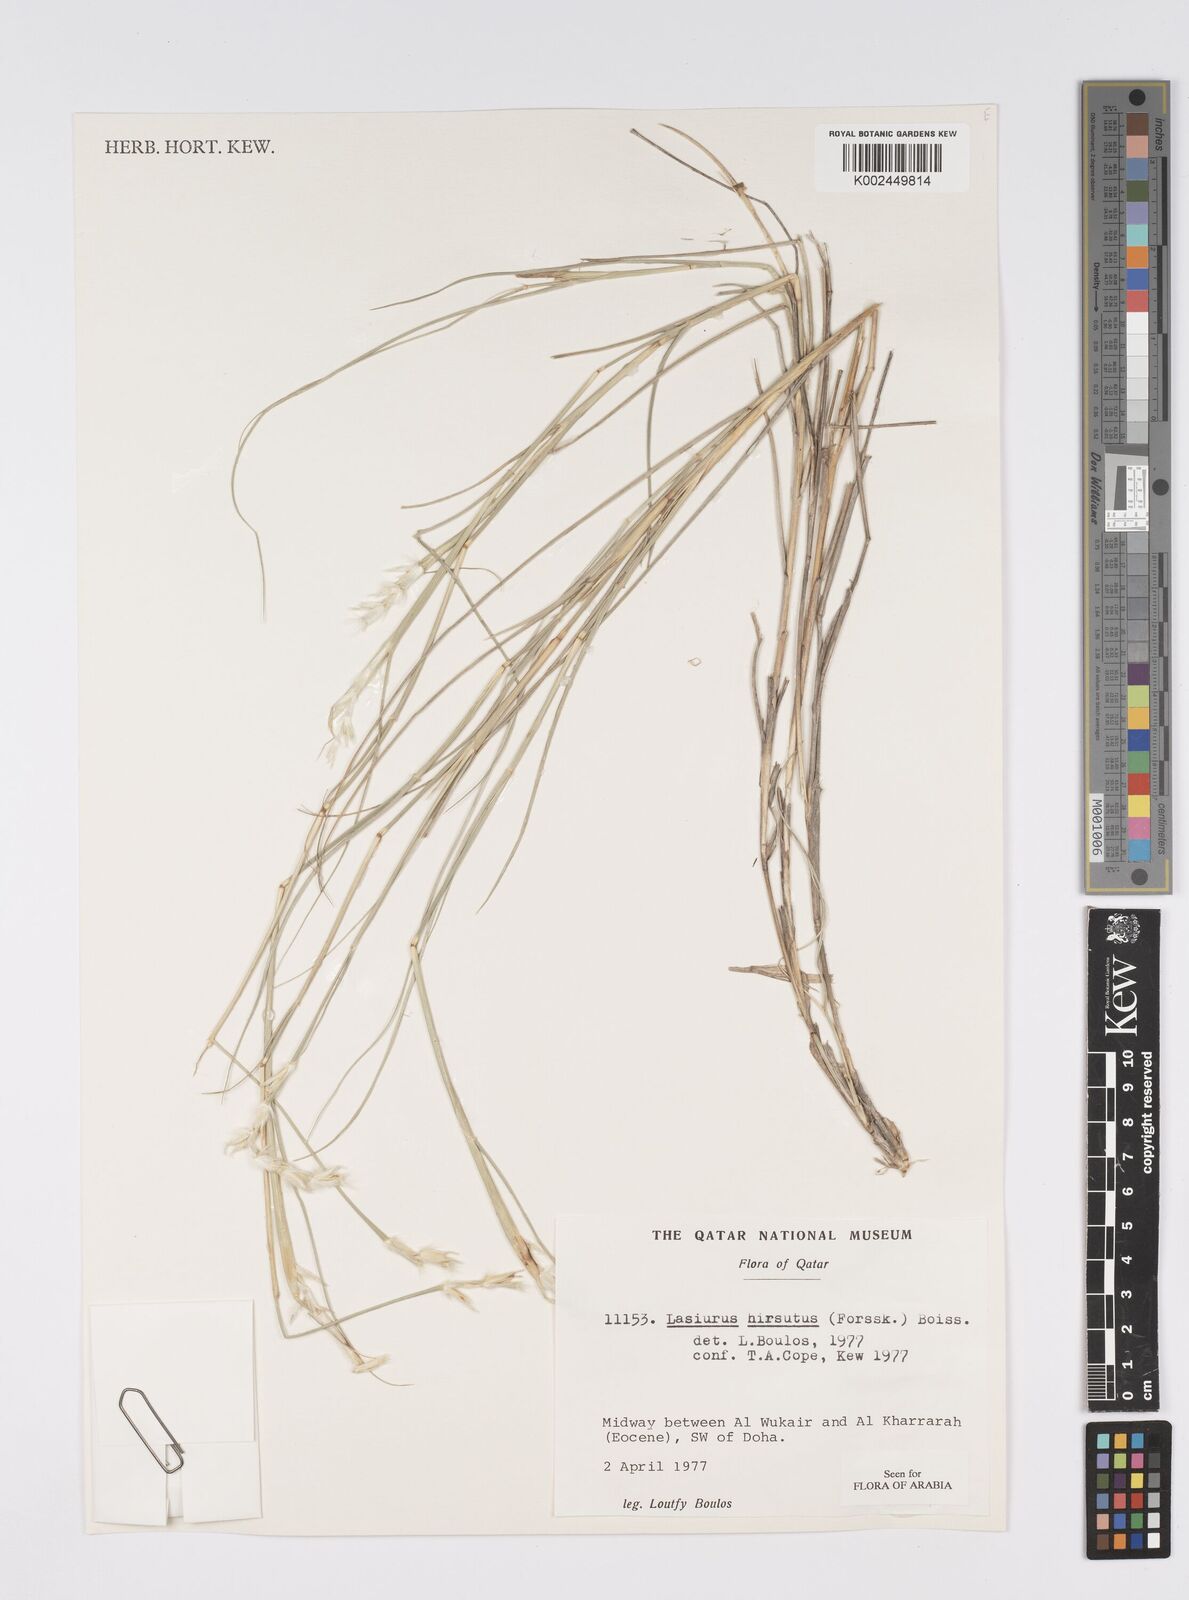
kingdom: Plantae
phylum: Tracheophyta
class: Liliopsida
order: Poales
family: Poaceae
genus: Lasiurus
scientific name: Lasiurus scindicus
